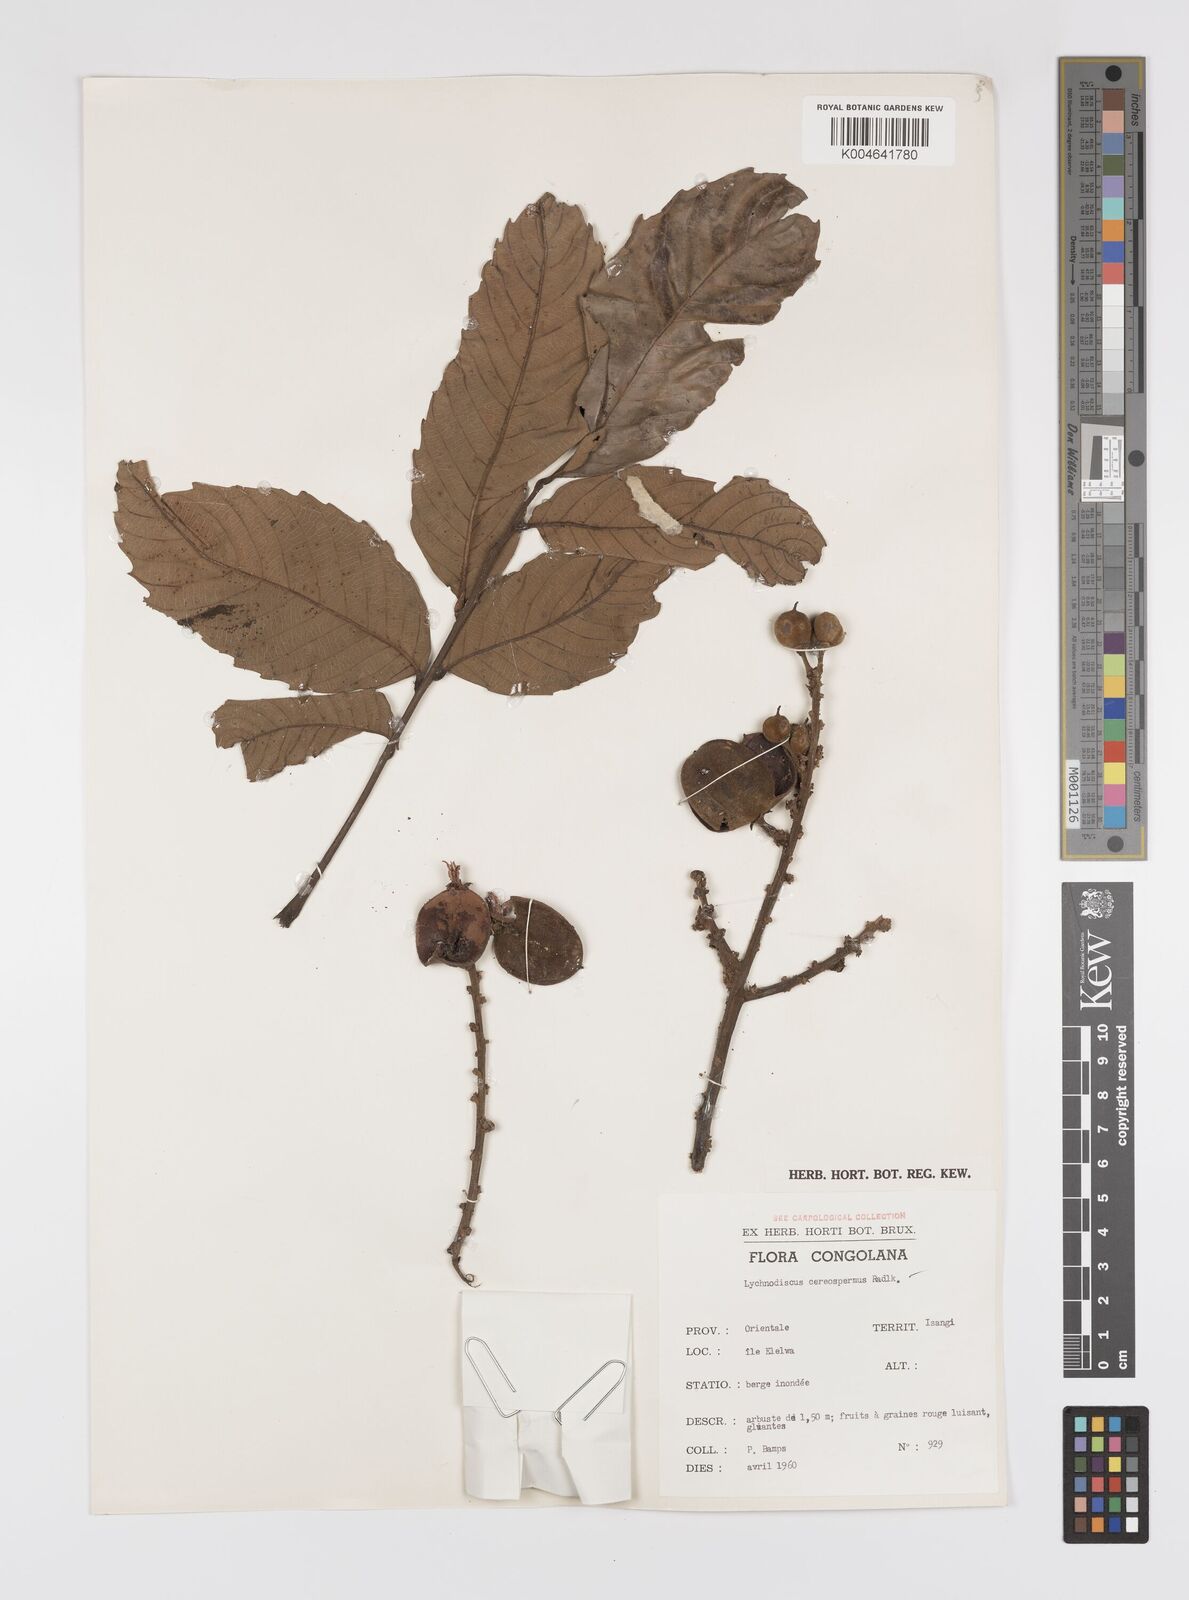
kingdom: Plantae
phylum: Tracheophyta
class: Magnoliopsida
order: Sapindales
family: Sapindaceae
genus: Lychnodiscus
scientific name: Lychnodiscus cerospermus
